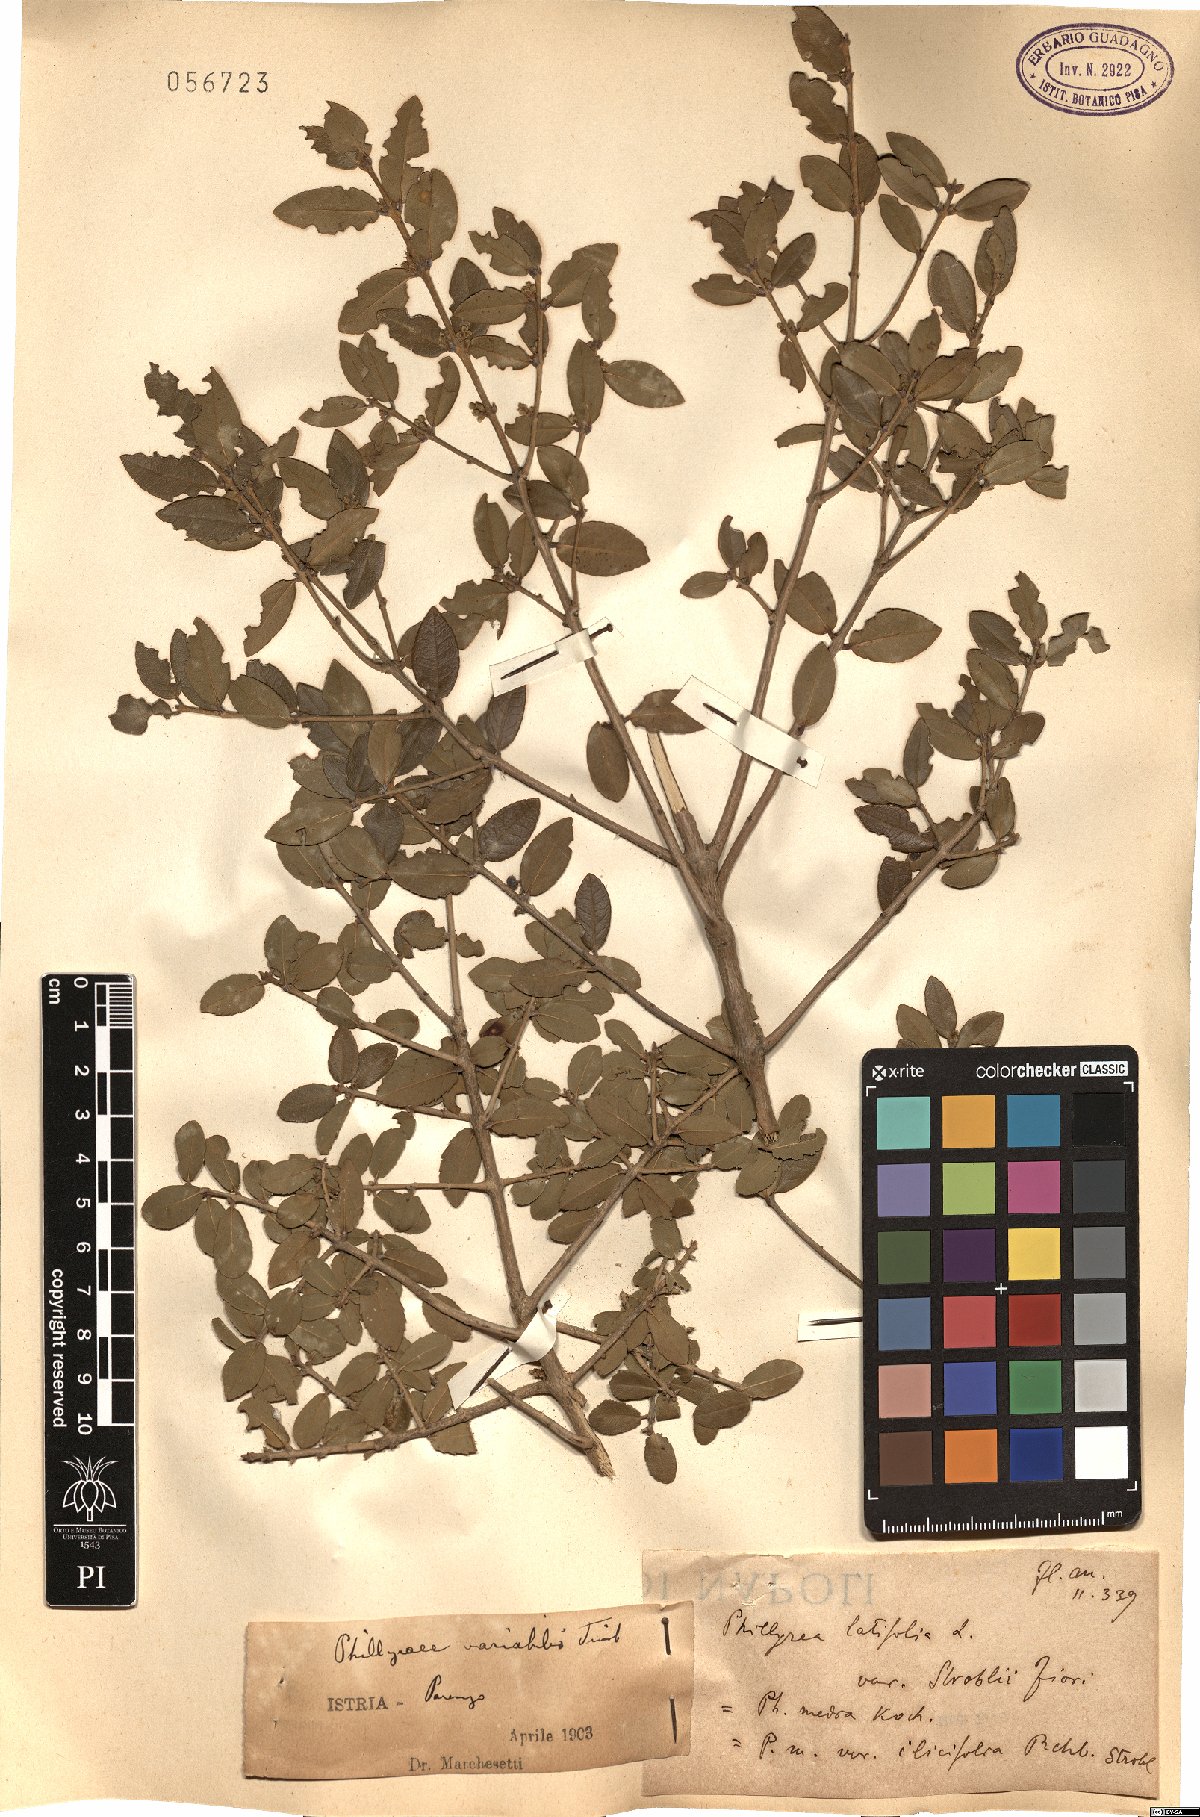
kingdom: Plantae
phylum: Tracheophyta
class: Magnoliopsida
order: Lamiales
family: Oleaceae
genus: Phillyrea
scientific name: Phillyrea latifolia
